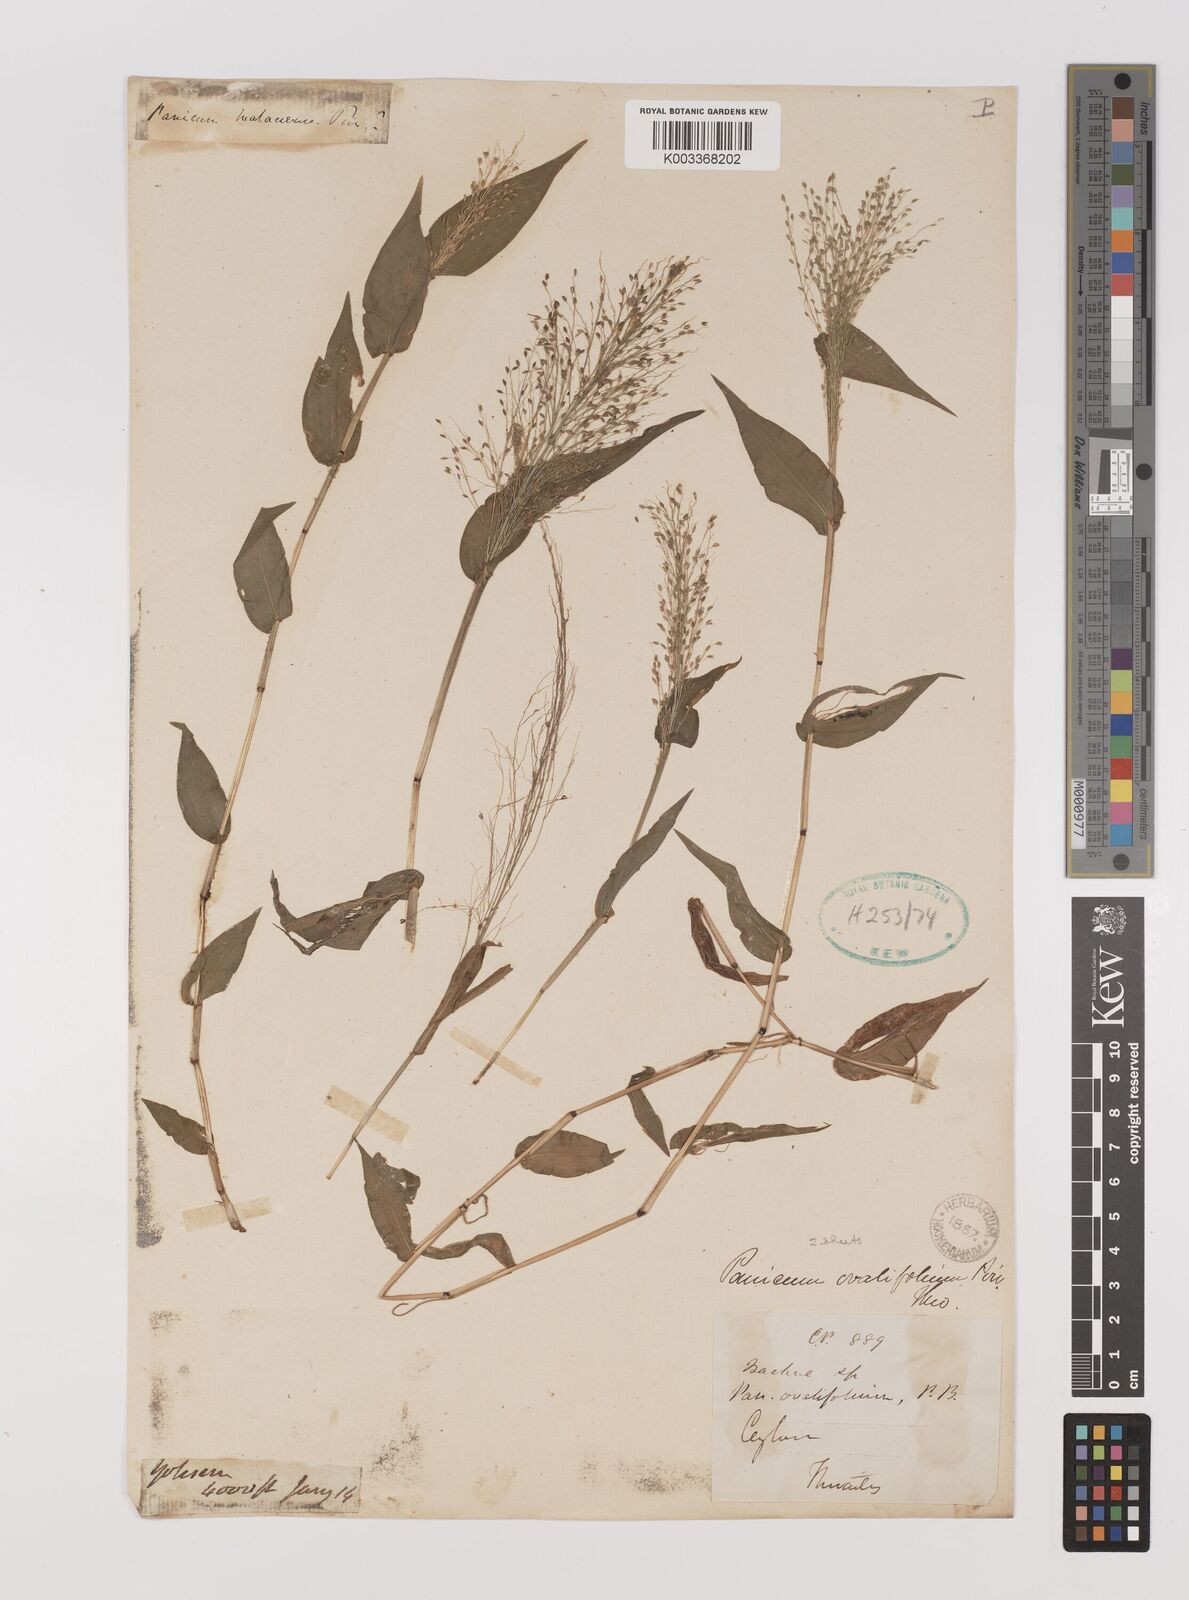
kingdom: Plantae
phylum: Tracheophyta
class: Liliopsida
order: Poales
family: Poaceae
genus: Panicum
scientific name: Panicum brevifolium
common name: Shortleaf panic grass
